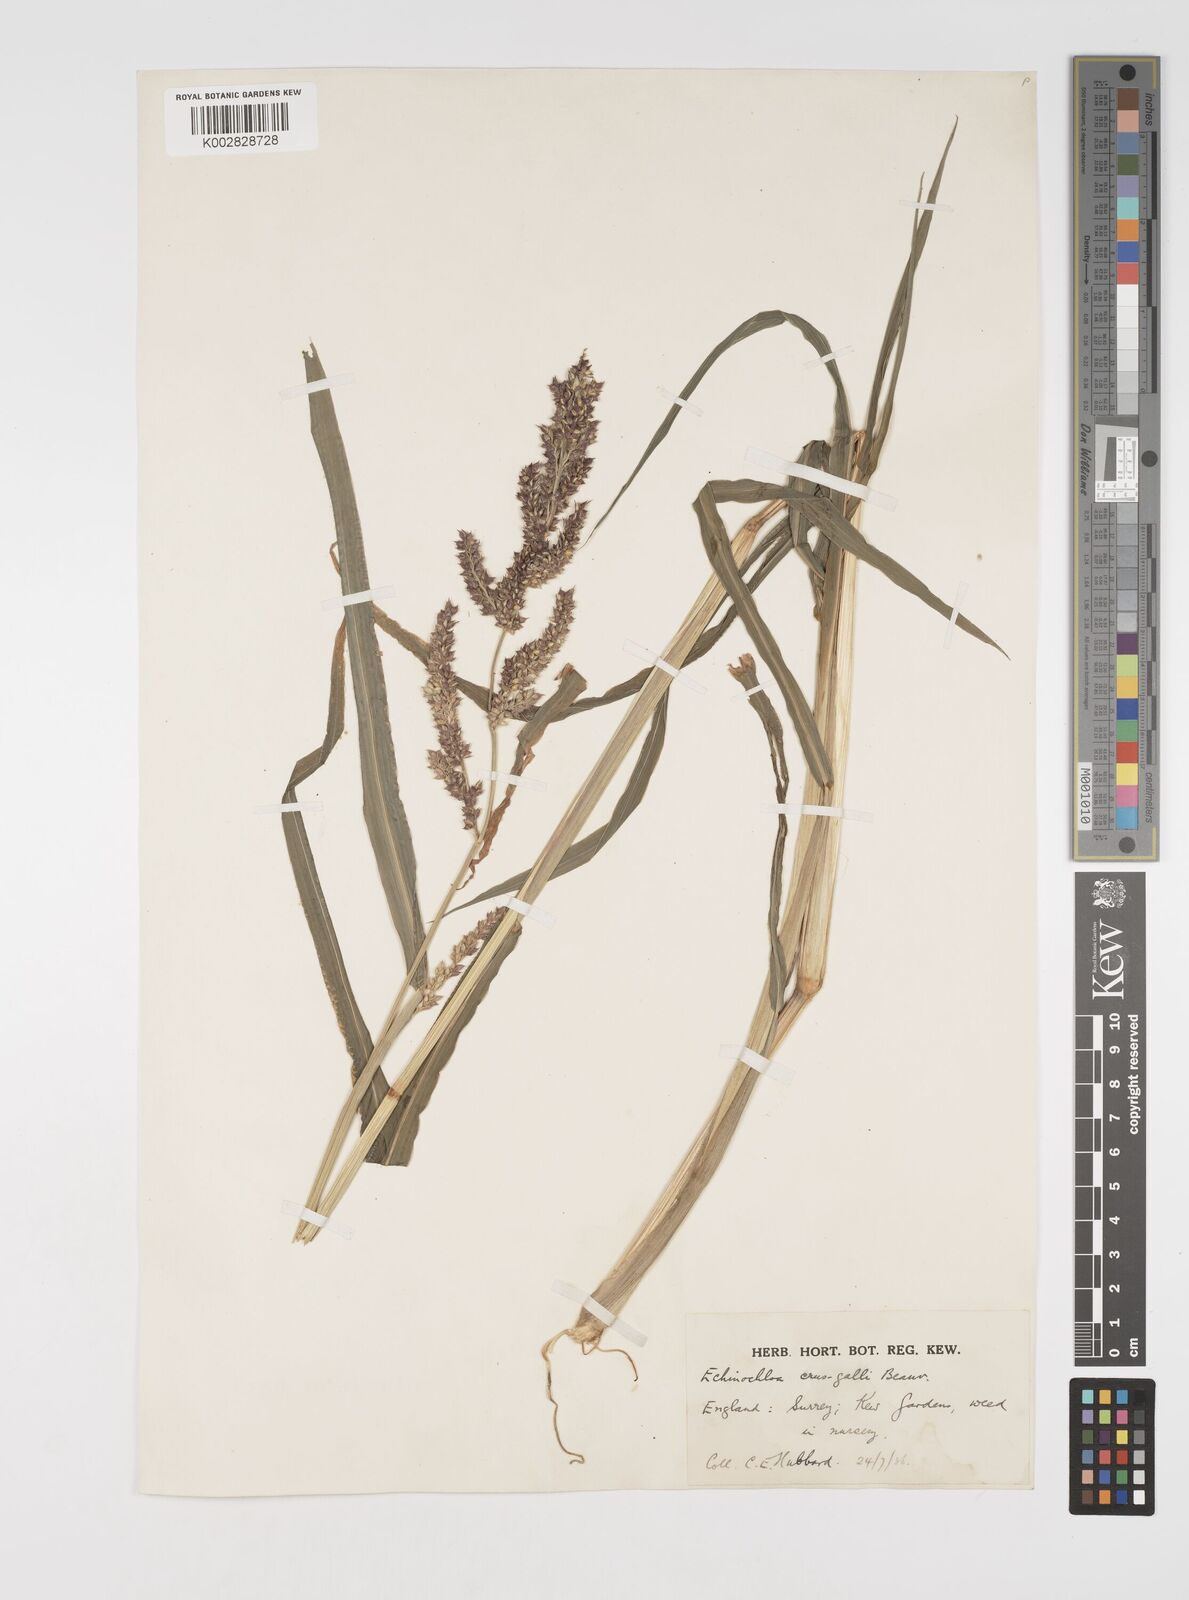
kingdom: Plantae
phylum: Tracheophyta
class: Liliopsida
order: Poales
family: Poaceae
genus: Echinochloa
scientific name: Echinochloa crus-galli
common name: Cockspur
